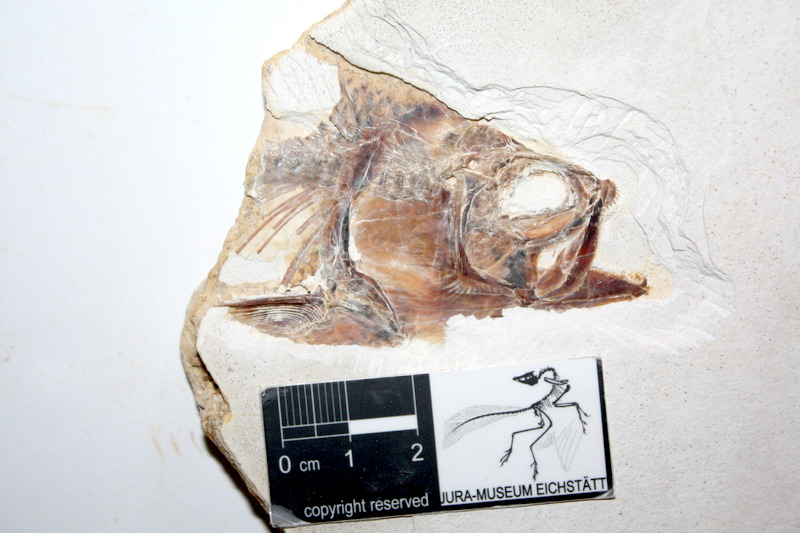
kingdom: Animalia
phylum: Chordata
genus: Thrissops
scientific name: Thrissops formosus
